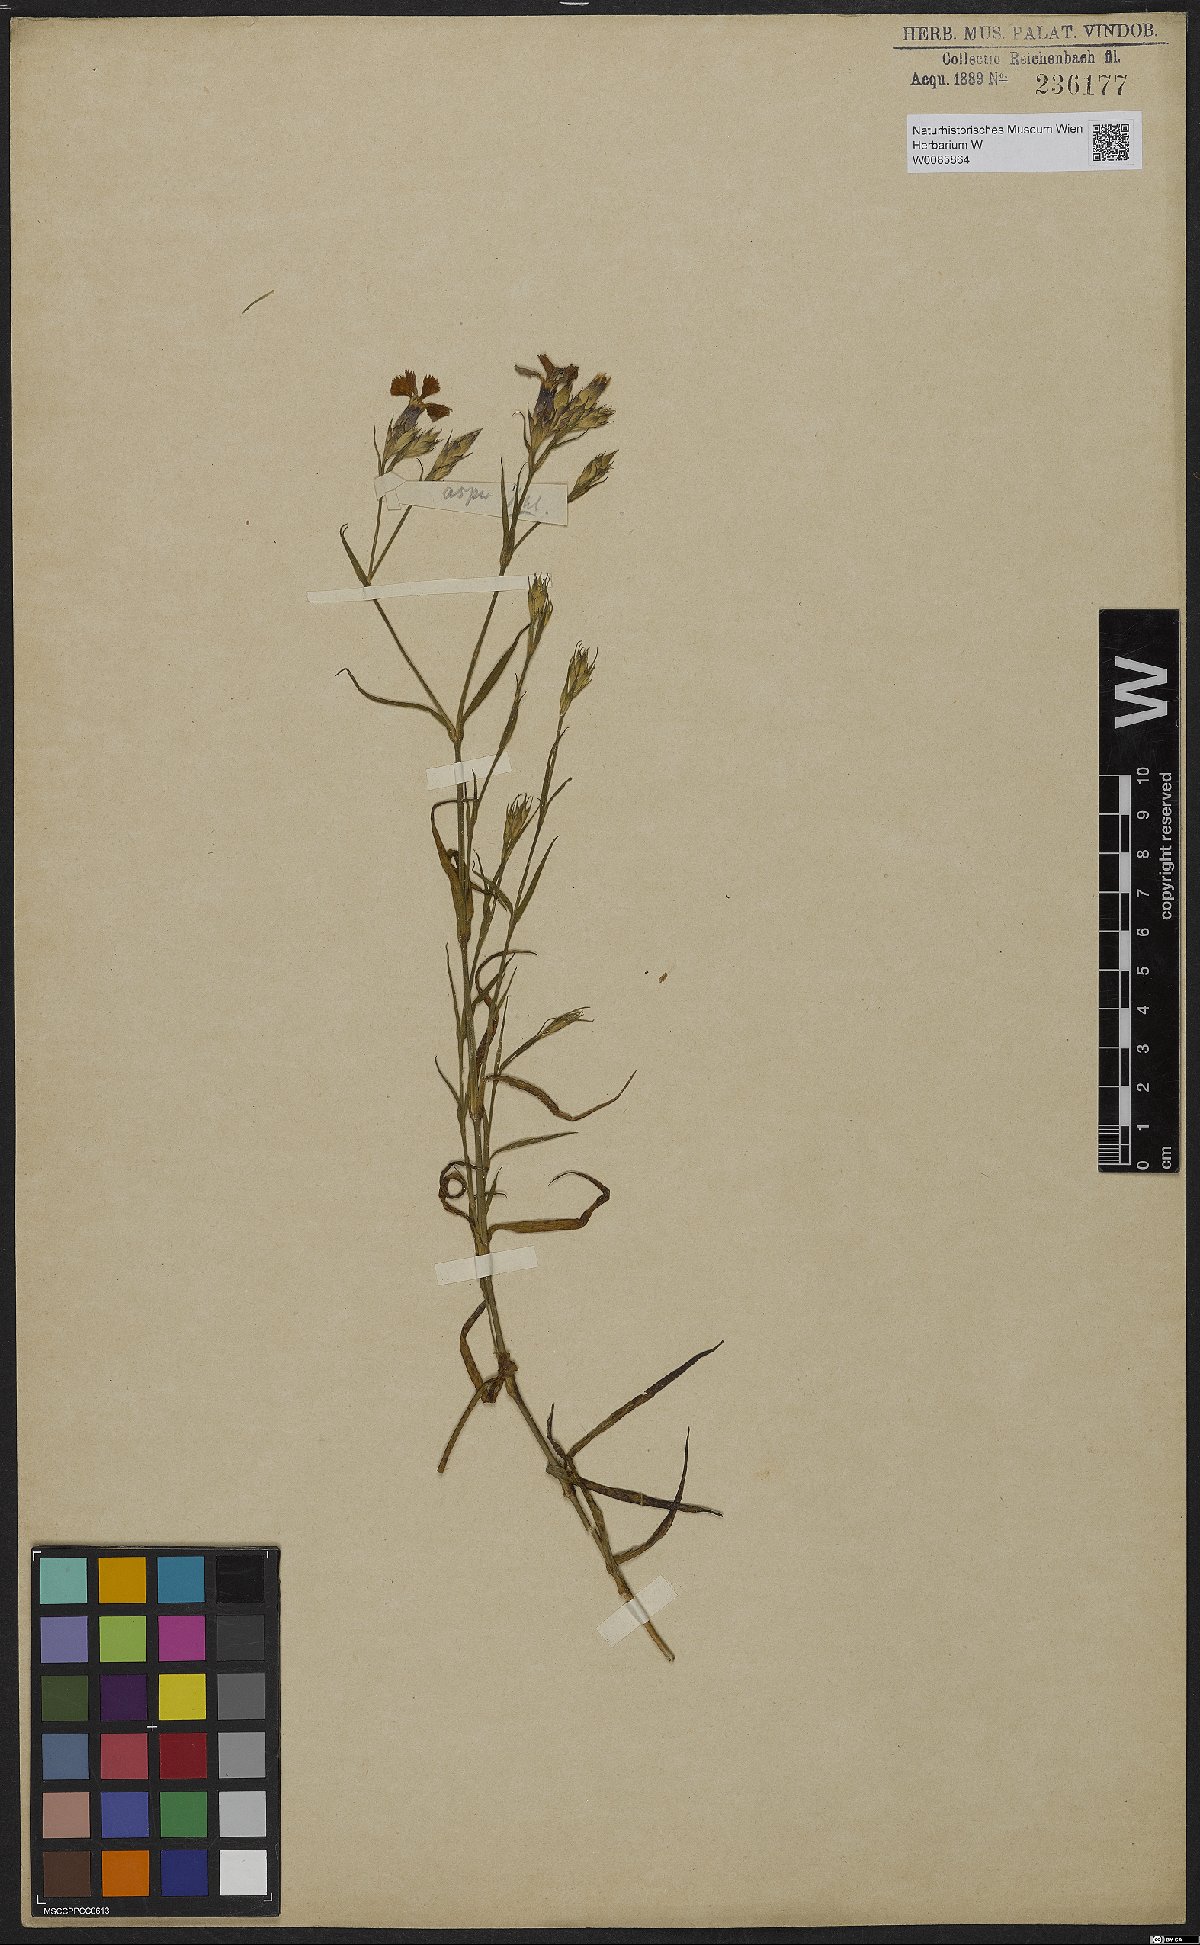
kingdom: Plantae
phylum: Tracheophyta
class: Magnoliopsida
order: Caryophyllales
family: Caryophyllaceae
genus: Dianthus
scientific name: Dianthus pungens
